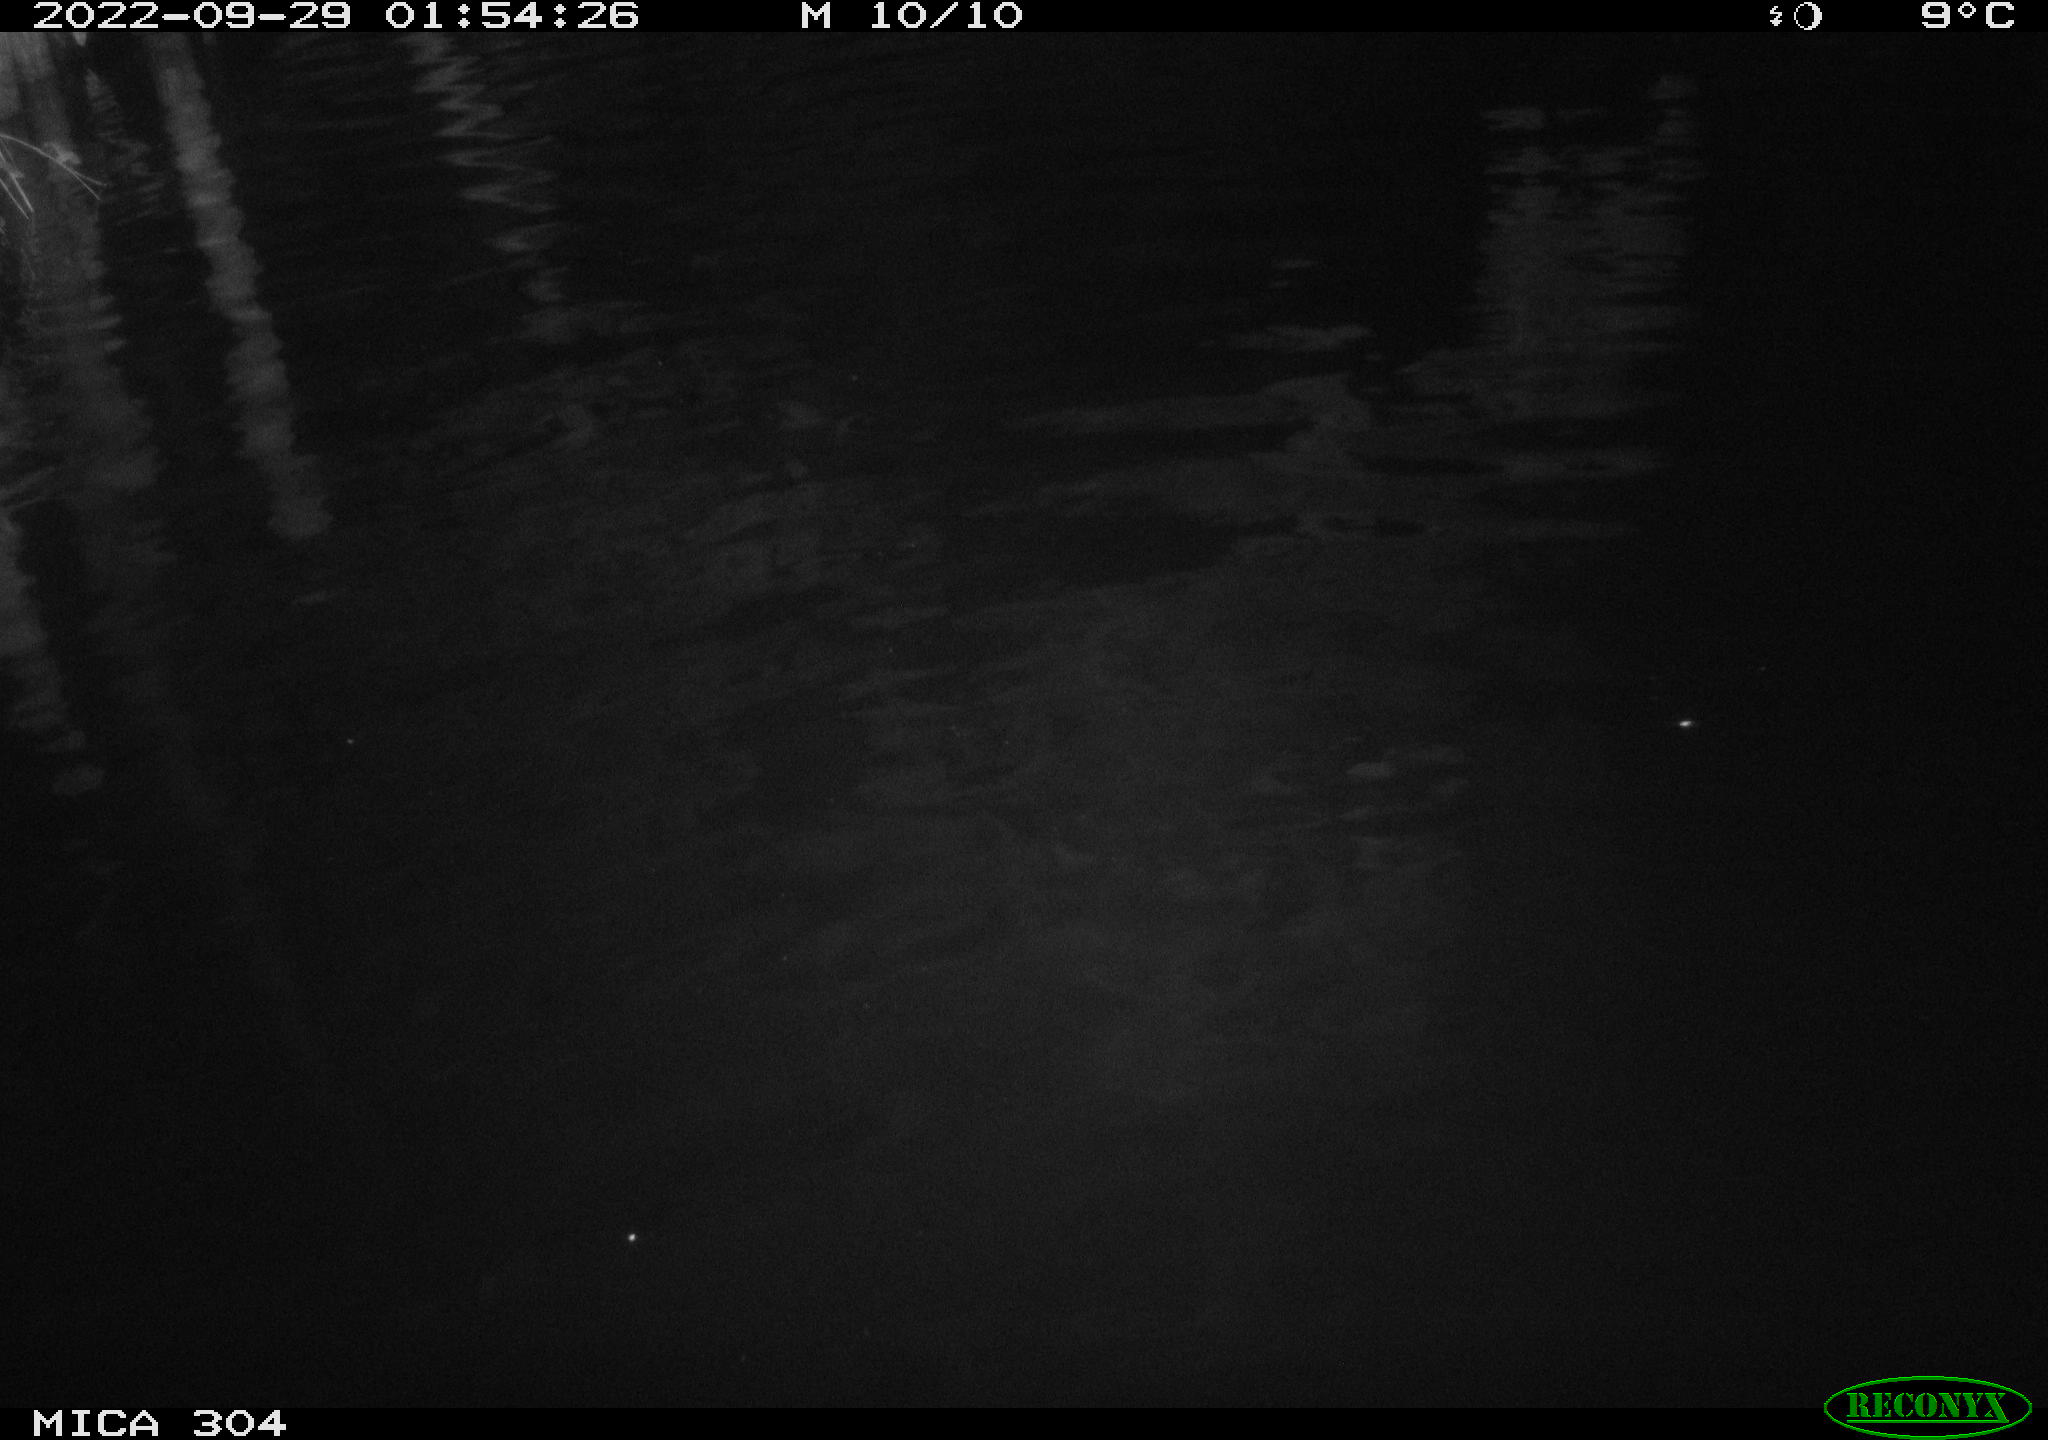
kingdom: Animalia
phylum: Chordata
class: Mammalia
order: Rodentia
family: Cricetidae
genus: Ondatra
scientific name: Ondatra zibethicus
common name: Muskrat
